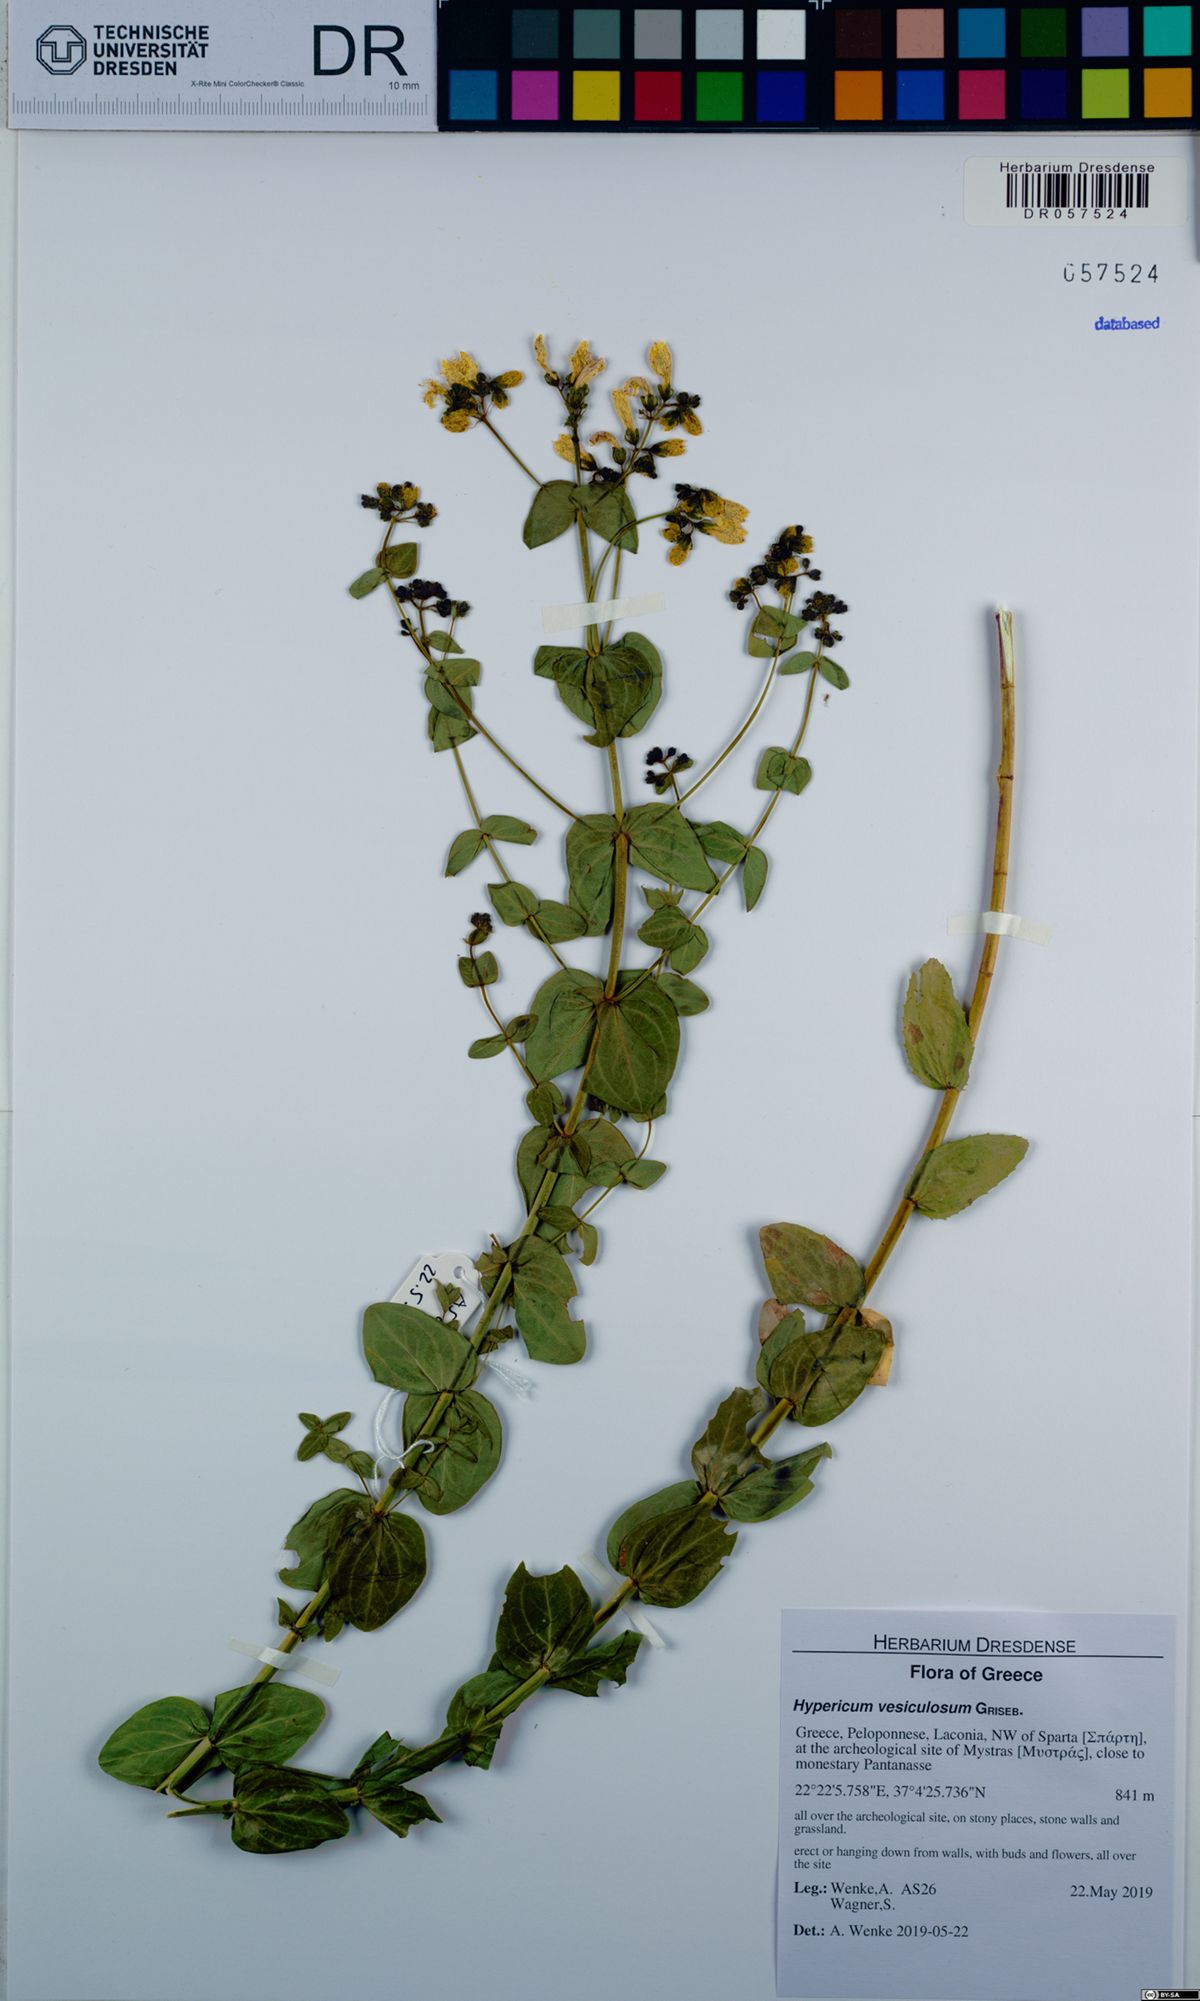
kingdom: Plantae
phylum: Tracheophyta
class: Magnoliopsida
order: Malpighiales
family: Hypericaceae
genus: Hypericum
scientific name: Hypericum vesiculosum
